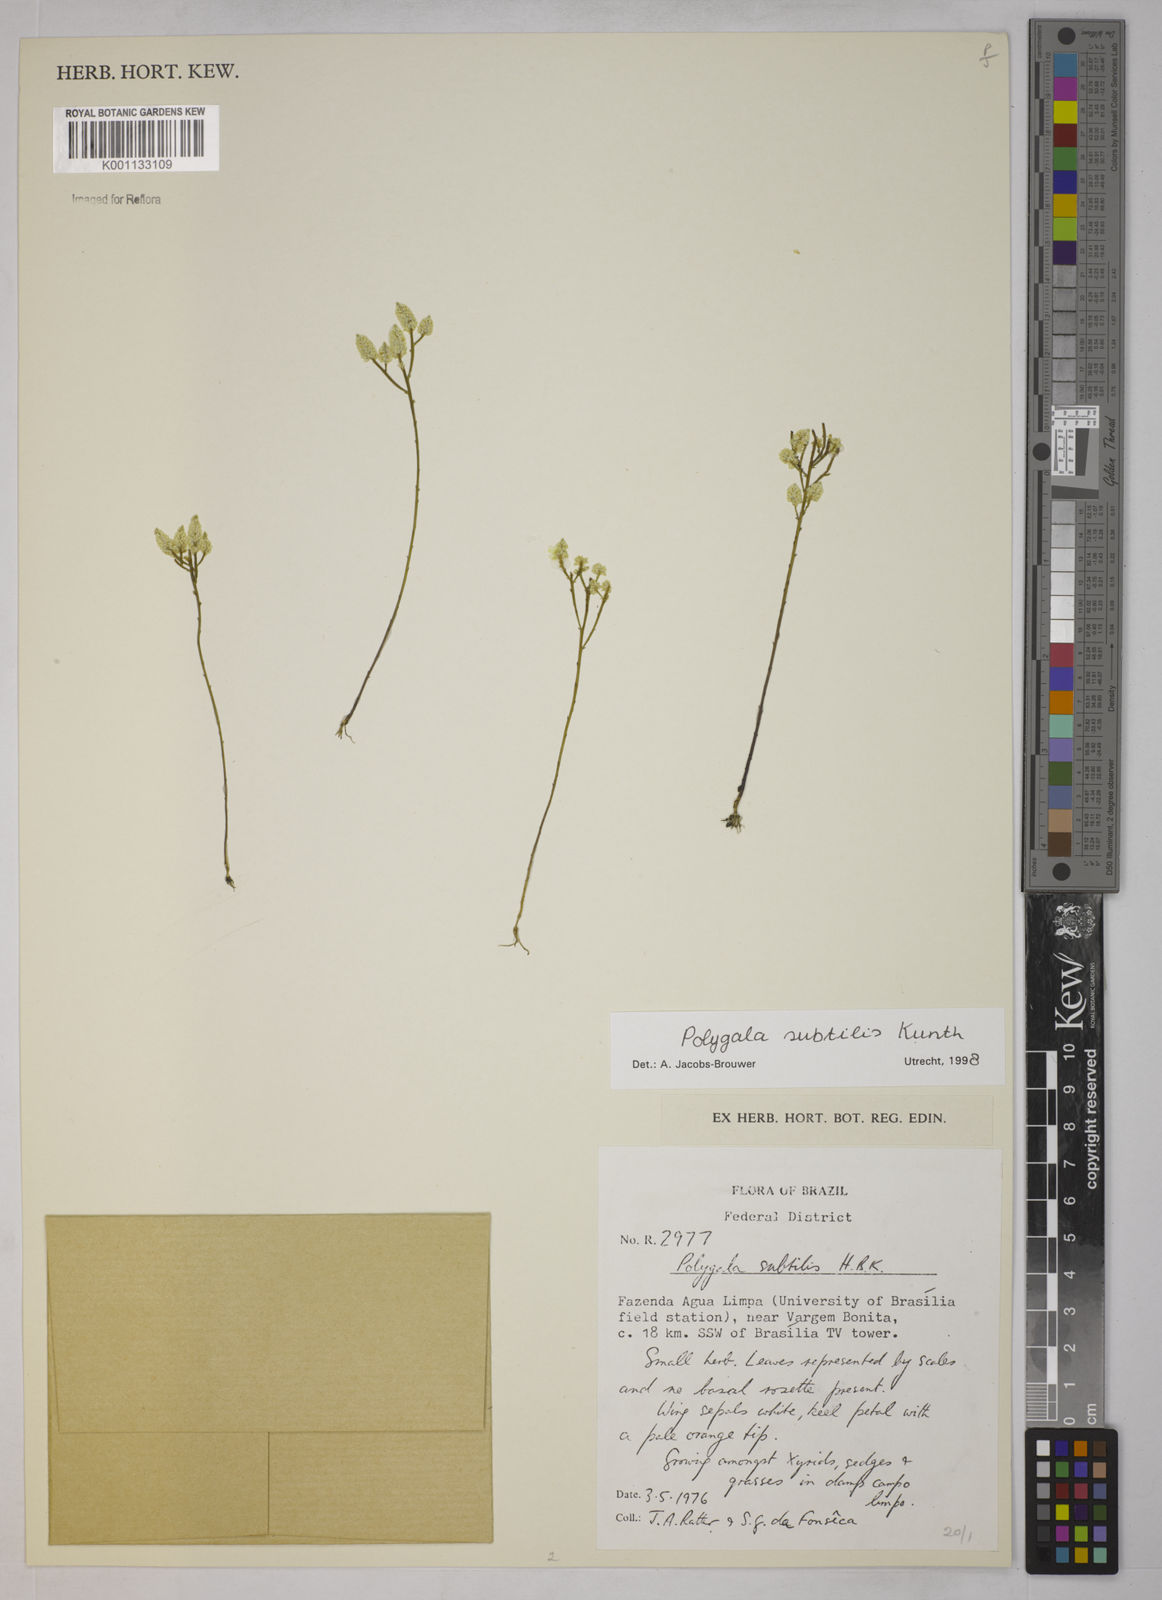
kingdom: Plantae
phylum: Tracheophyta
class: Magnoliopsida
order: Fabales
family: Polygalaceae
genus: Polygala
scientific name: Polygala subtilis
